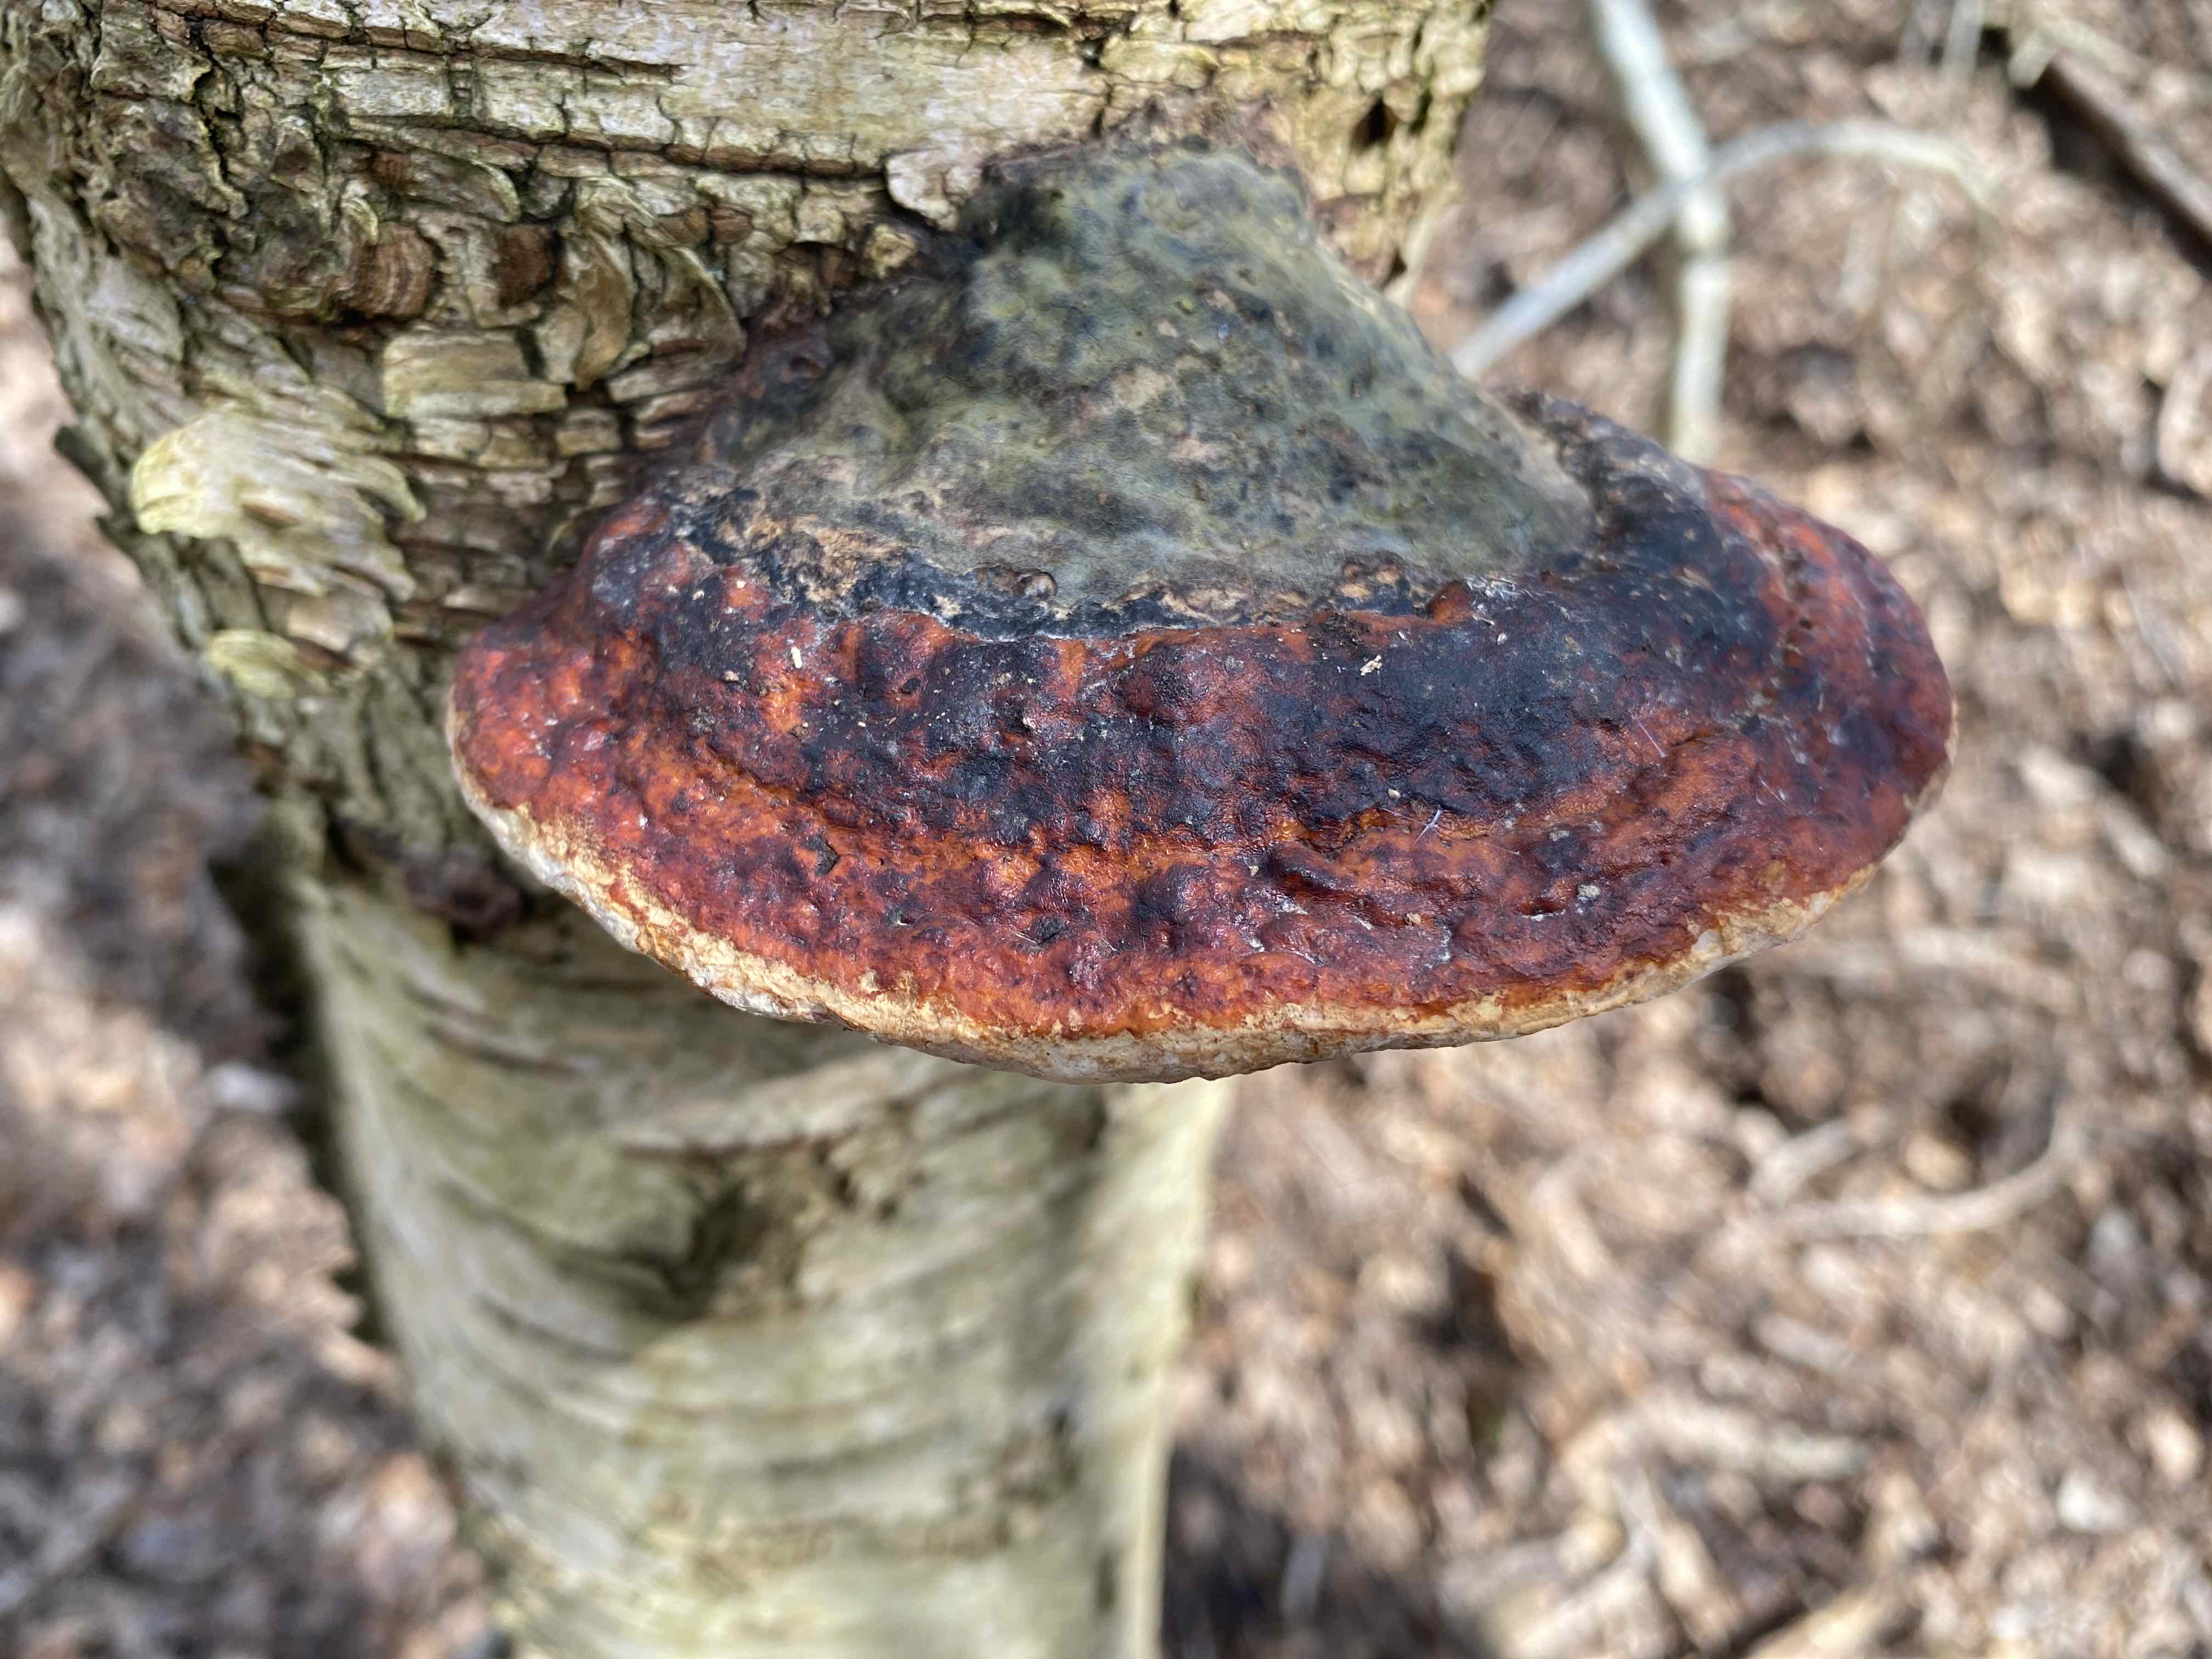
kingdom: Fungi
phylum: Basidiomycota
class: Agaricomycetes
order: Polyporales
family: Fomitopsidaceae
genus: Fomitopsis
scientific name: Fomitopsis pinicola
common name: randbæltet hovporesvamp
